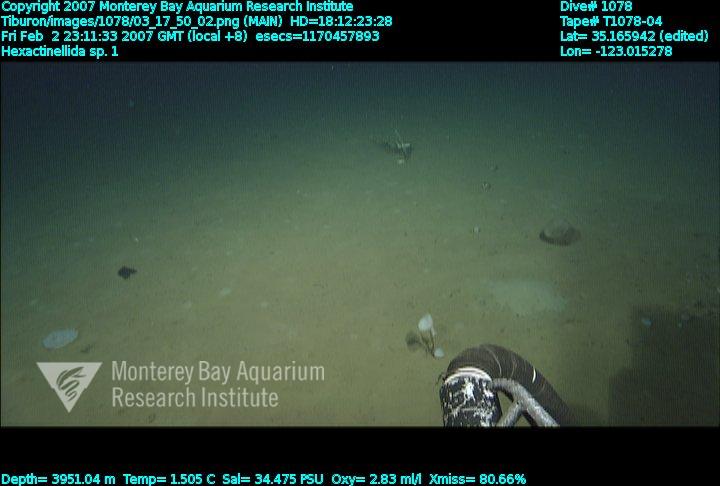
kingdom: Animalia
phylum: Porifera
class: Hexactinellida
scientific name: Hexactinellida
